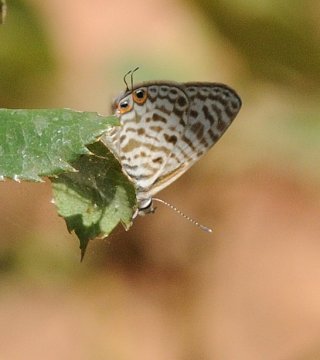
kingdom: Animalia
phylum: Arthropoda
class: Insecta
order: Lepidoptera
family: Lycaenidae
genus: Leptotes
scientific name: Leptotes pirithous
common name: Lang's Short-tailed Blue
